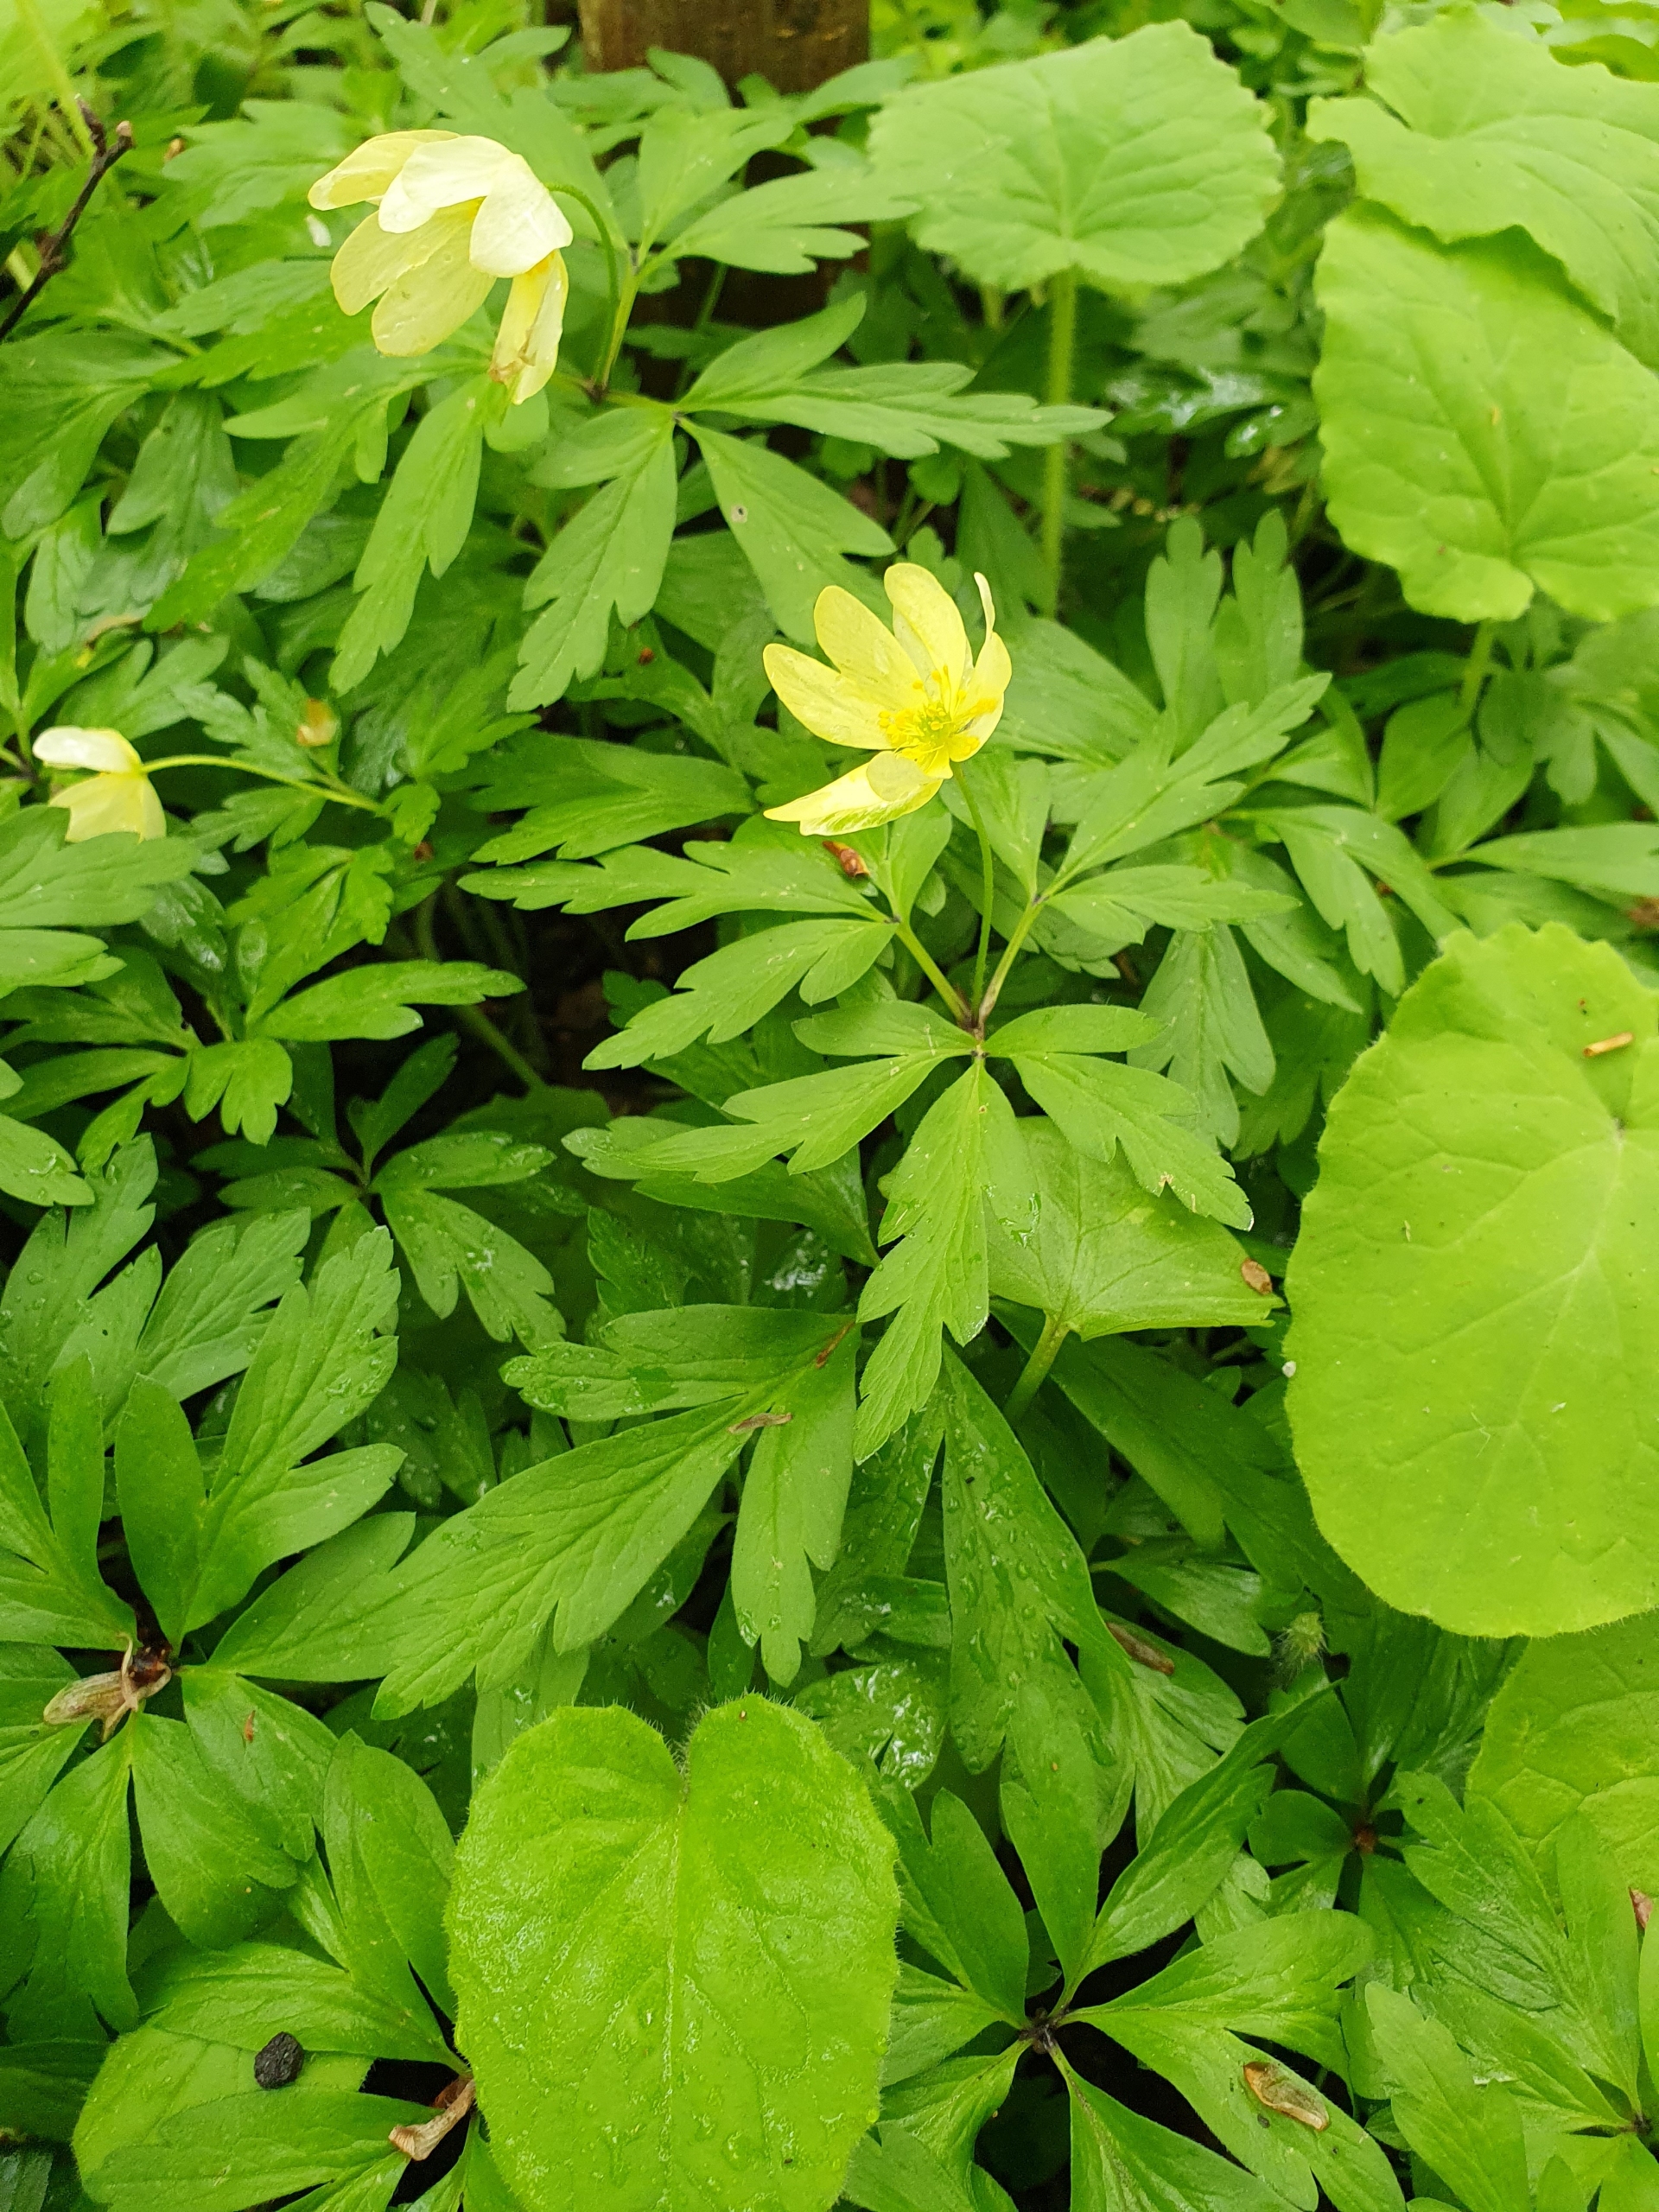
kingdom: Plantae
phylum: Tracheophyta
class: Magnoliopsida
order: Ranunculales
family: Ranunculaceae
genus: Anemone
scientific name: Anemone
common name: Svovlgul anemone
